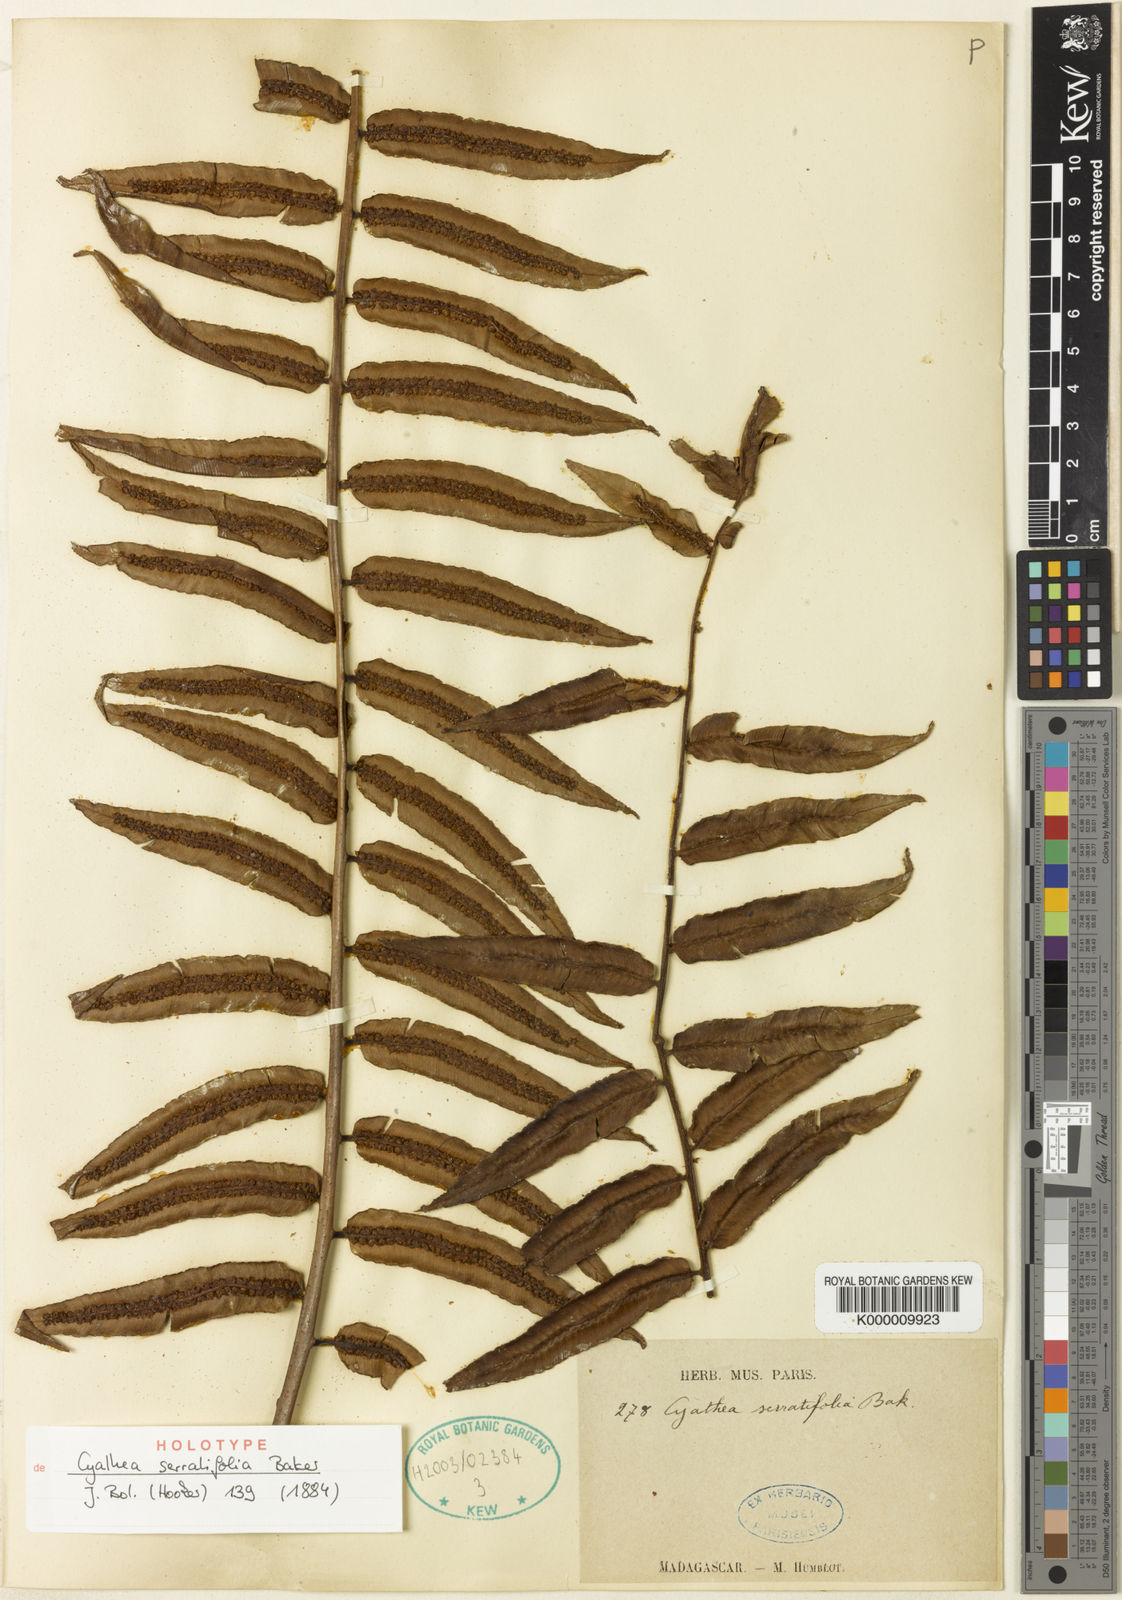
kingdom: Plantae
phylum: Tracheophyta
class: Polypodiopsida
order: Cyatheales
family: Cyatheaceae
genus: Alsophila
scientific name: Alsophila serratifolia
